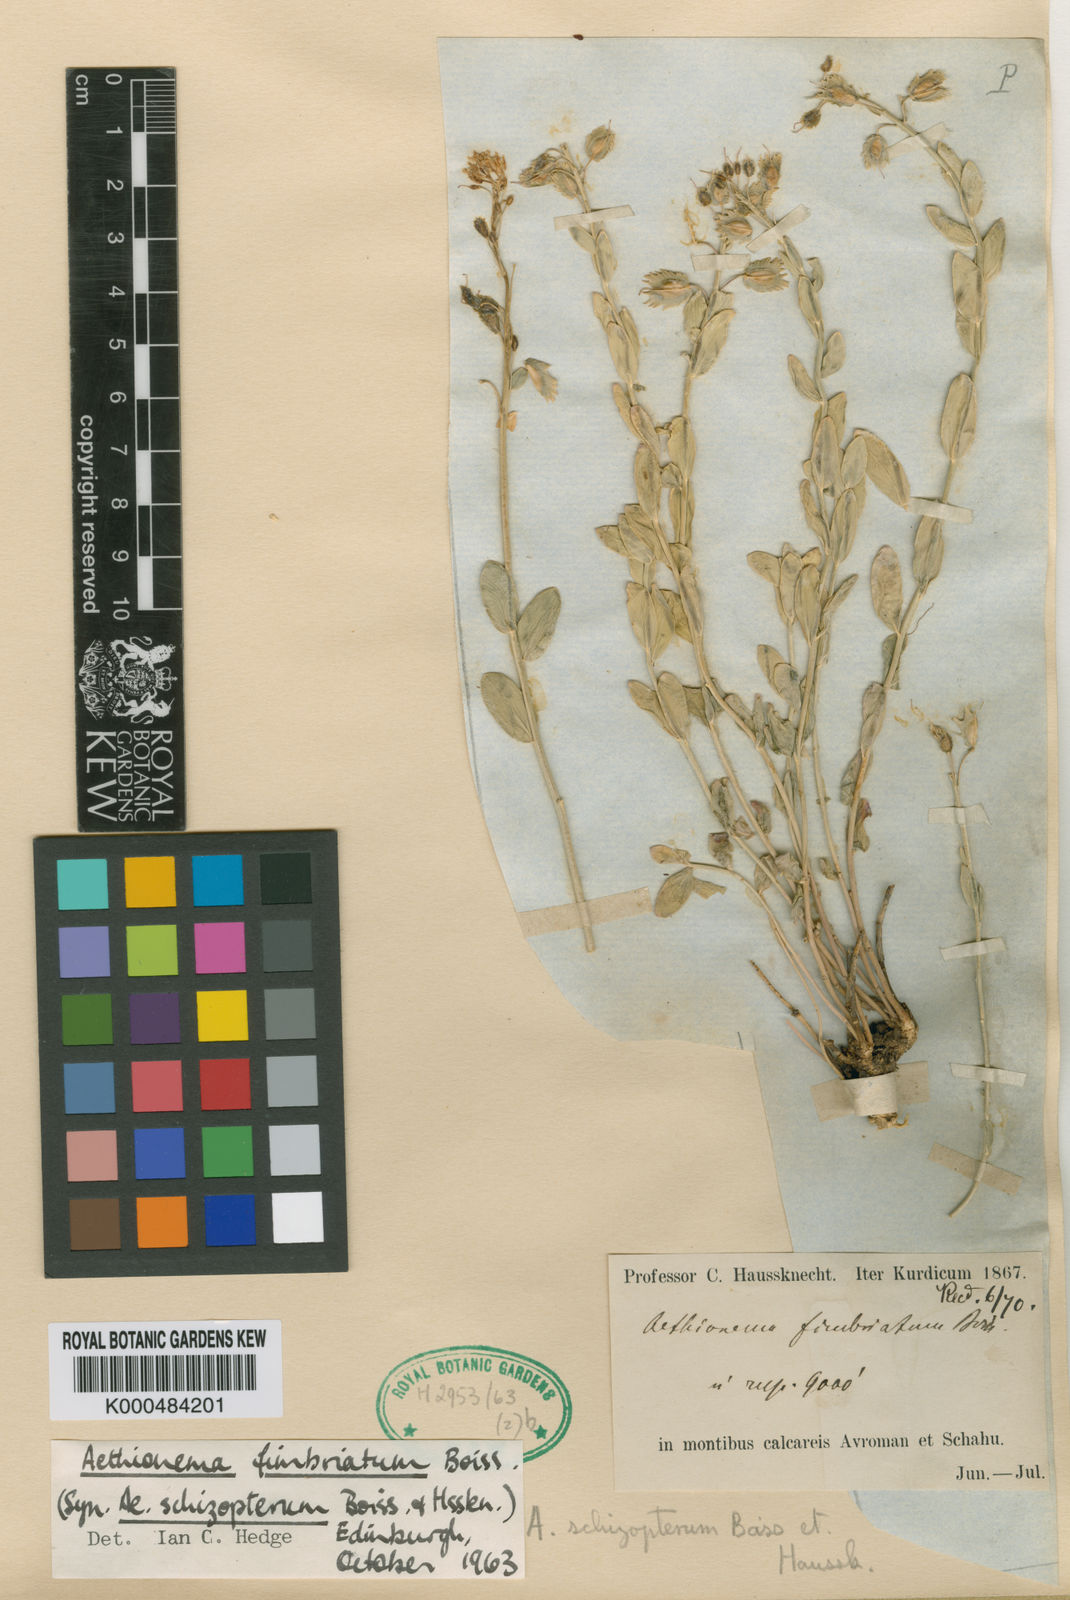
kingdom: Plantae
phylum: Tracheophyta
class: Magnoliopsida
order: Brassicales
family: Brassicaceae
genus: Aethionema
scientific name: Aethionema fimbriatum
